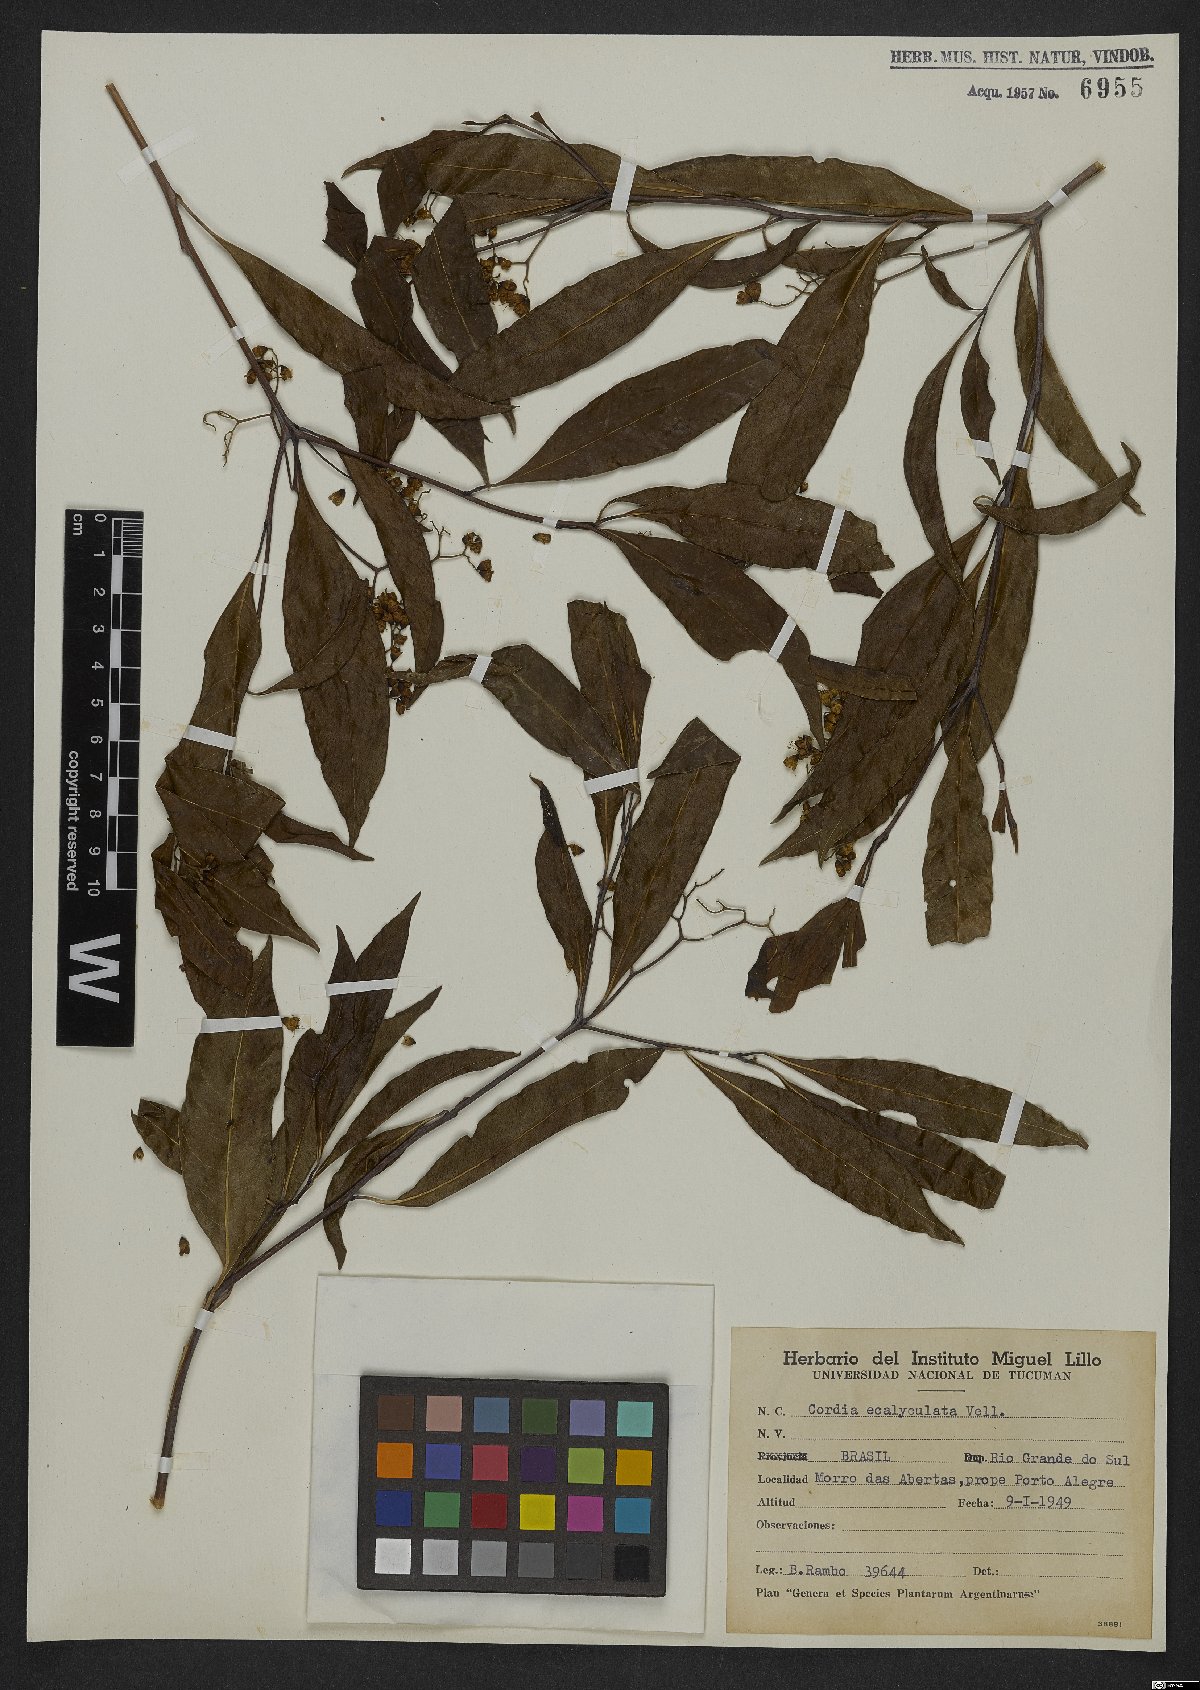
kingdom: Plantae
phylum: Tracheophyta
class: Magnoliopsida
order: Boraginales
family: Cordiaceae
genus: Cordia
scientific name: Cordia ecalyculata
